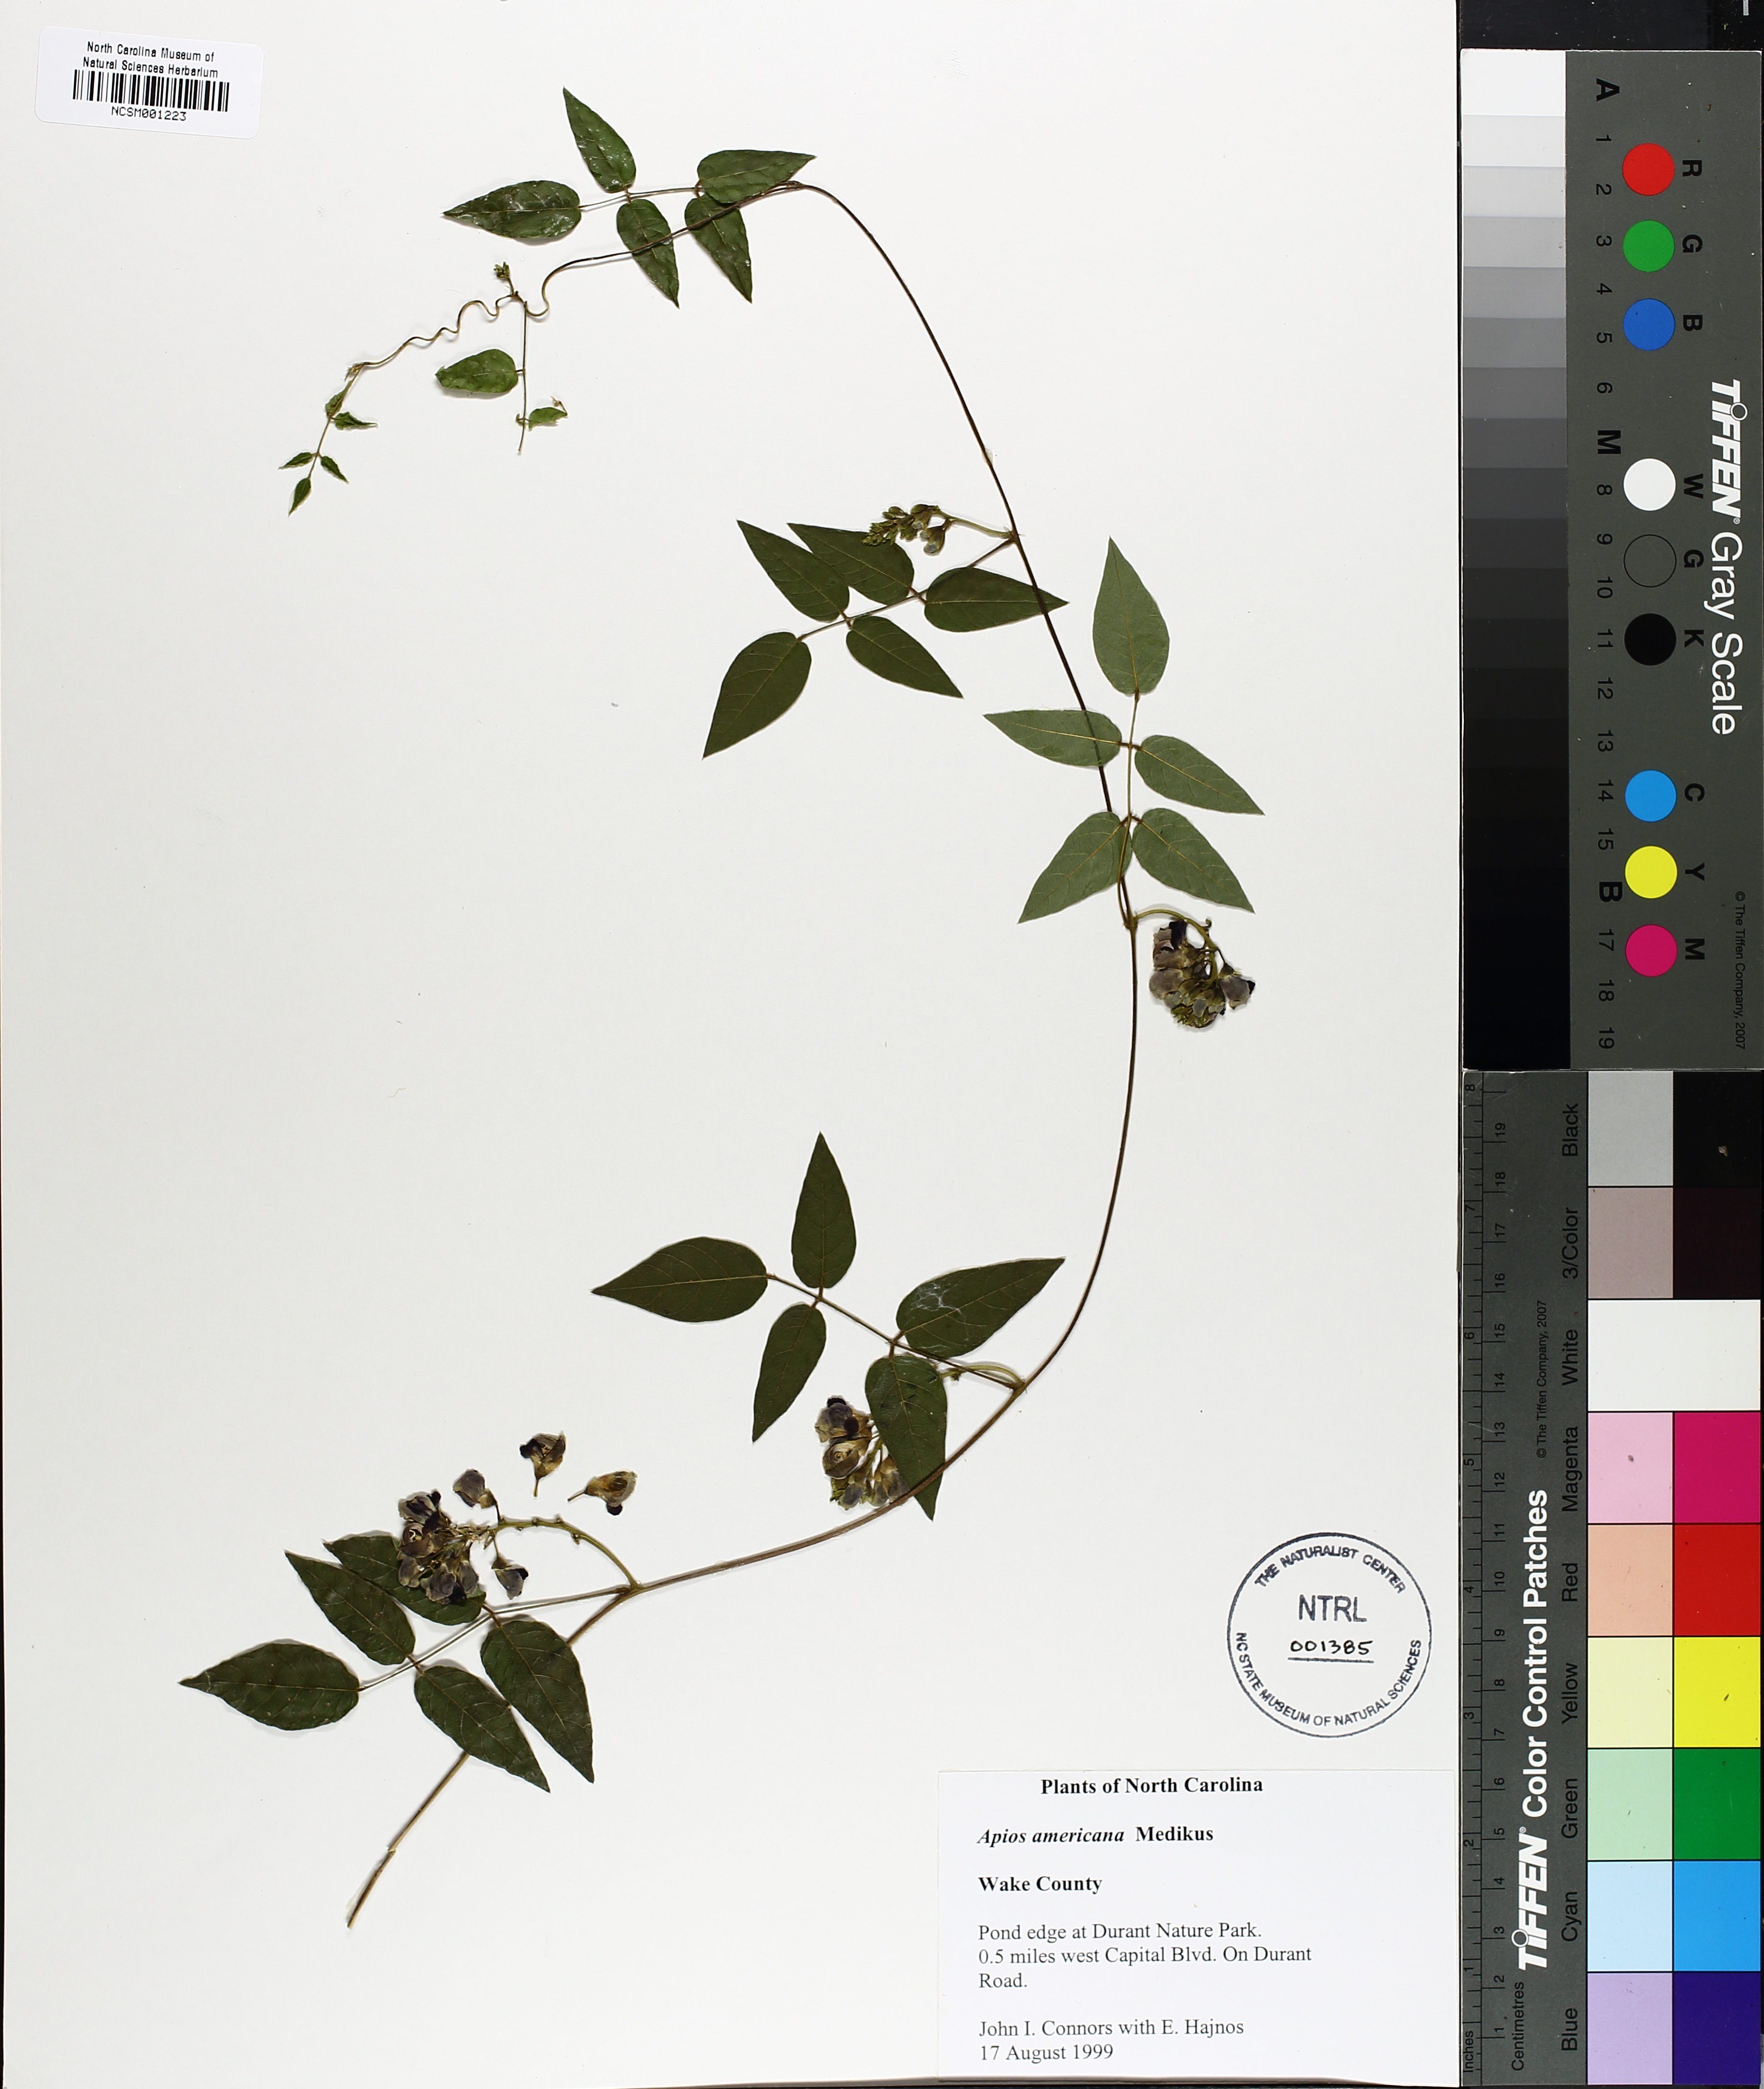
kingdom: Plantae
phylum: Tracheophyta
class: Magnoliopsida
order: Fabales
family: Fabaceae
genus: Apios
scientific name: Apios americana
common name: American potato-bean
